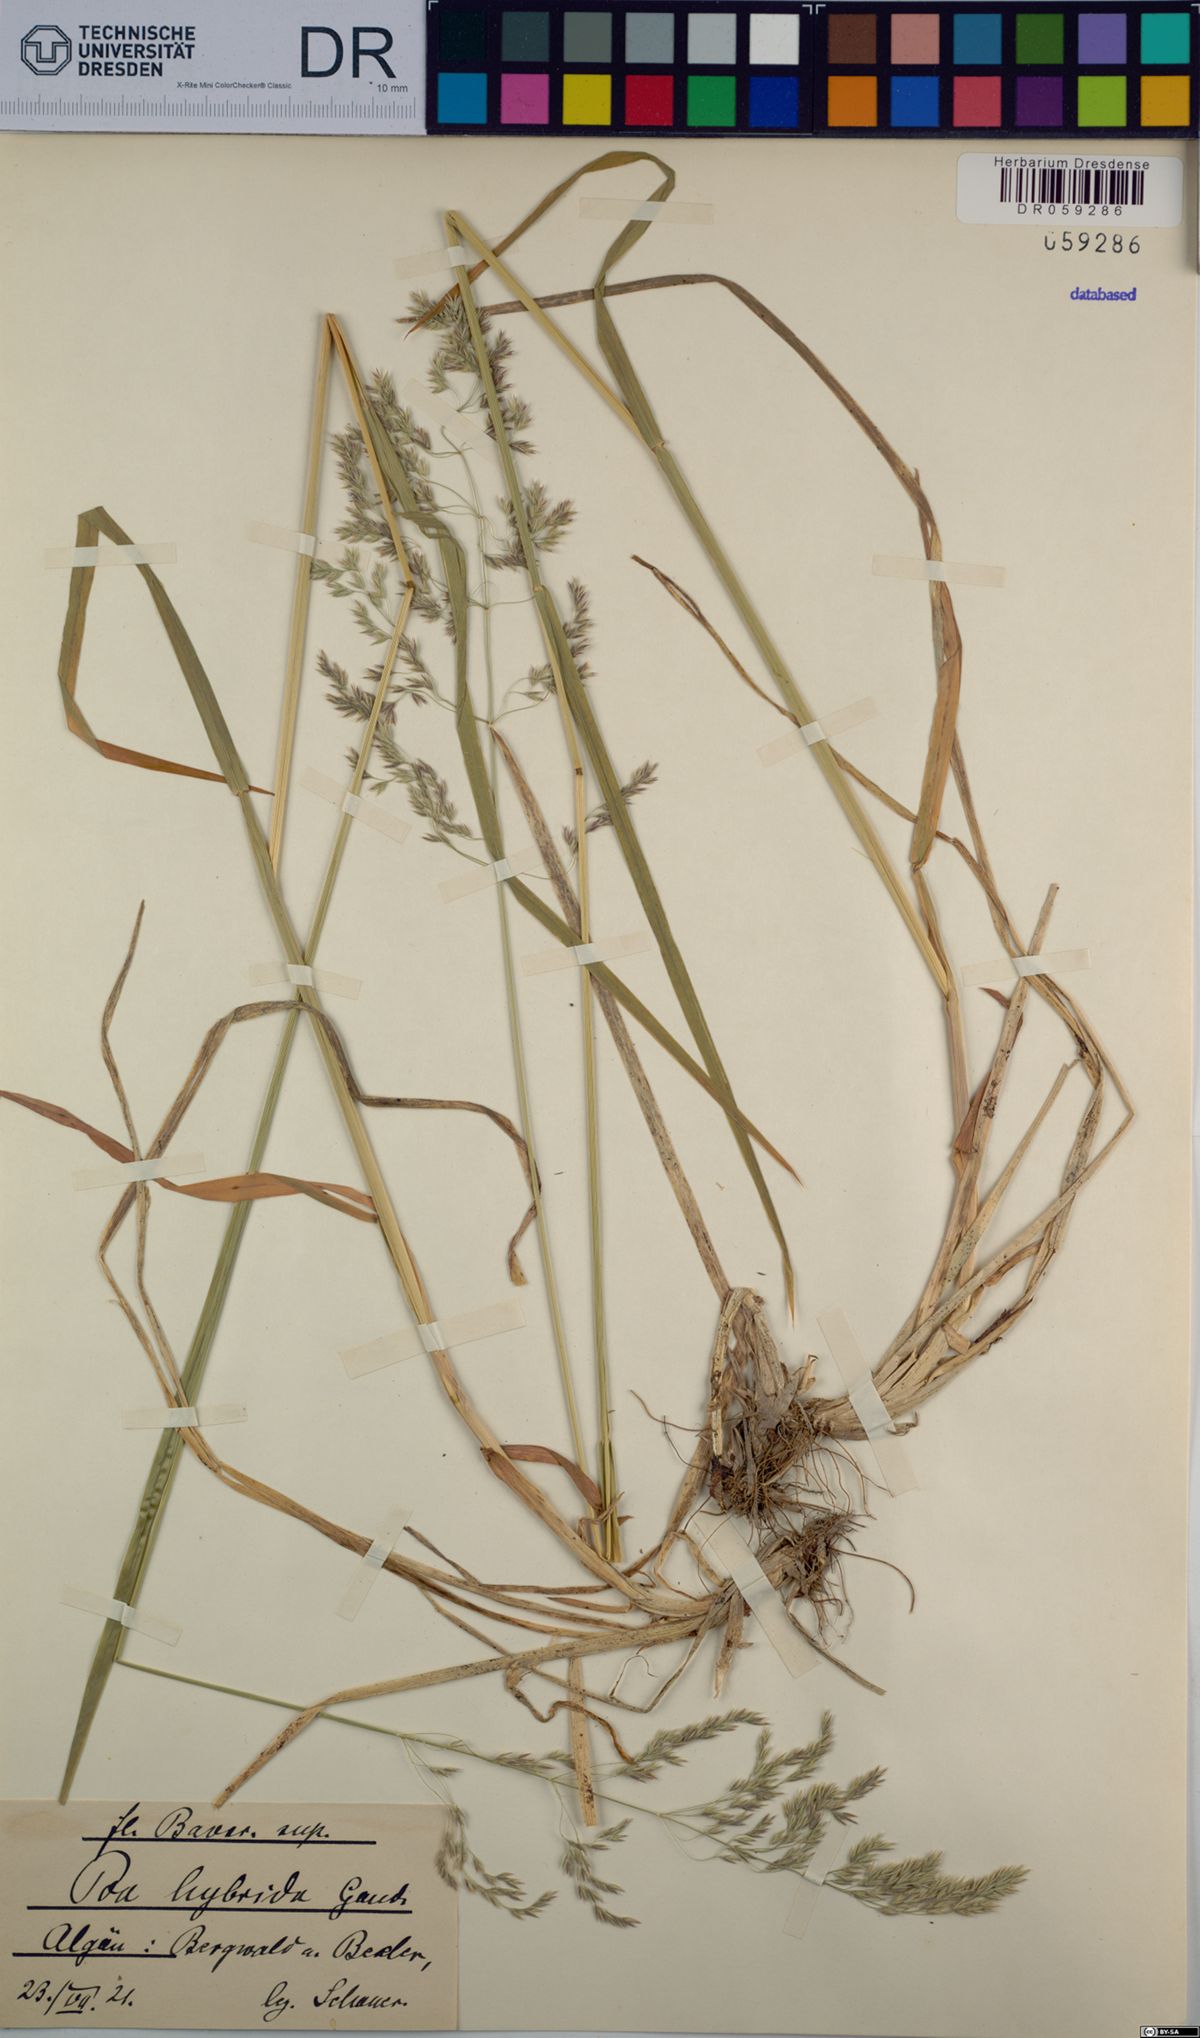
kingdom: Plantae
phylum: Tracheophyta
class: Liliopsida
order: Poales
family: Poaceae
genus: Poa
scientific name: Poa hybrida
